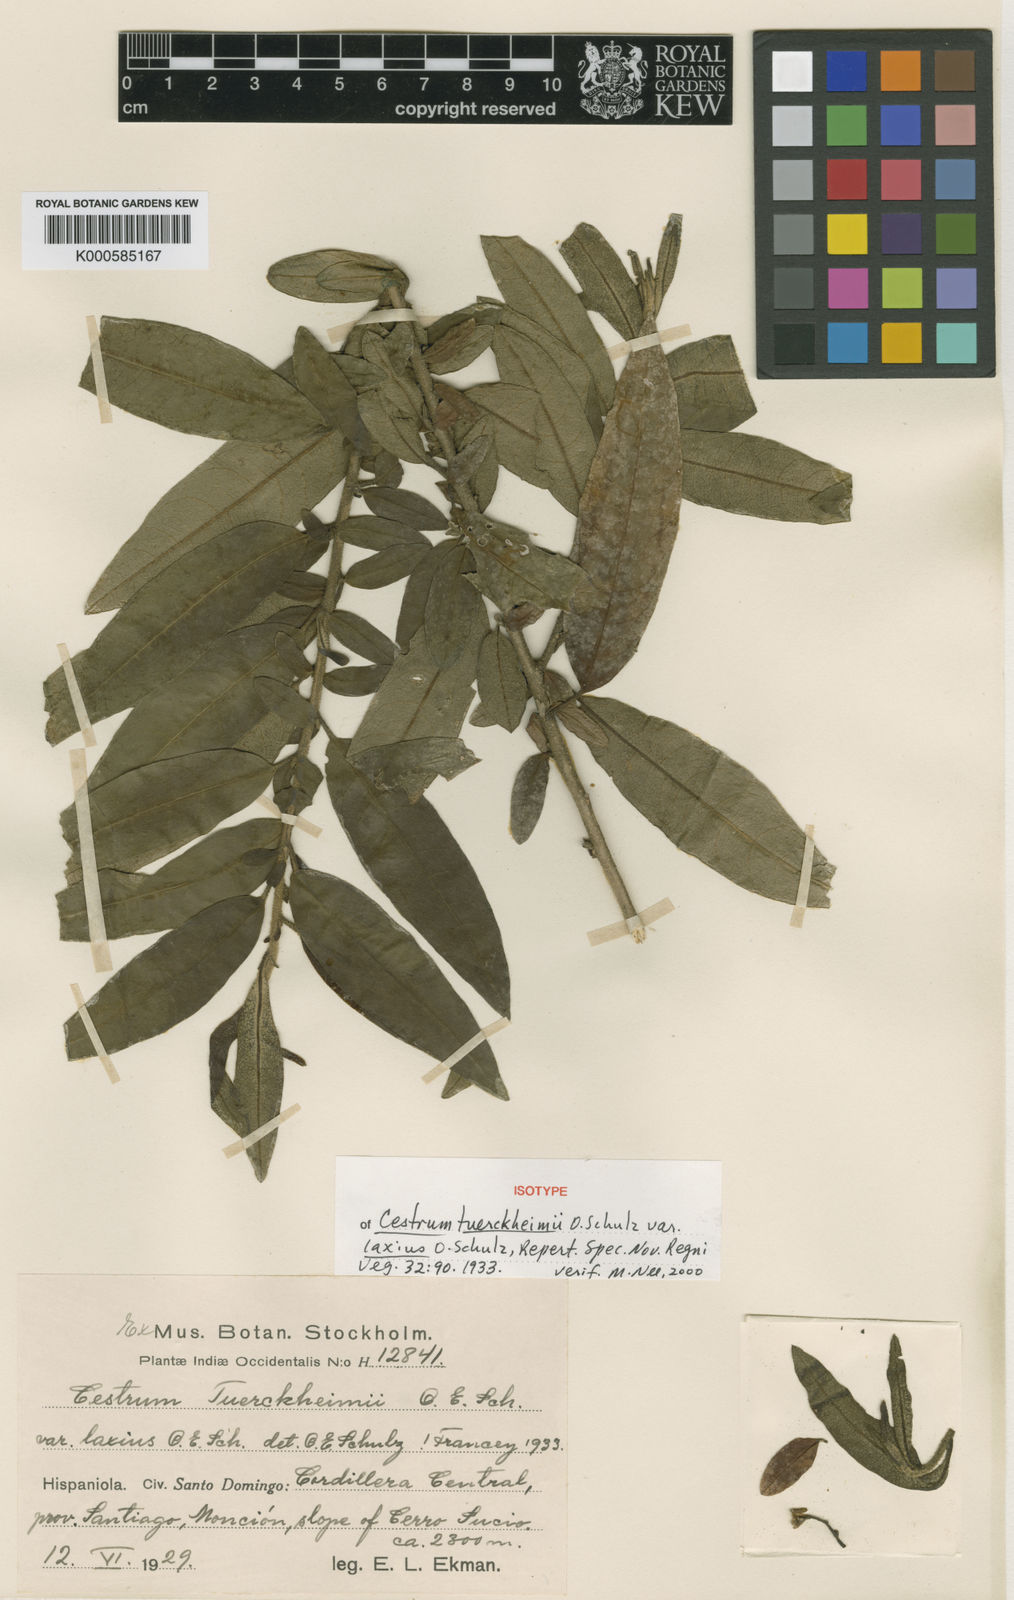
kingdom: Plantae
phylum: Tracheophyta
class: Magnoliopsida
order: Solanales
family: Solanaceae
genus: Cestrum
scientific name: Cestrum tuerckheimii
